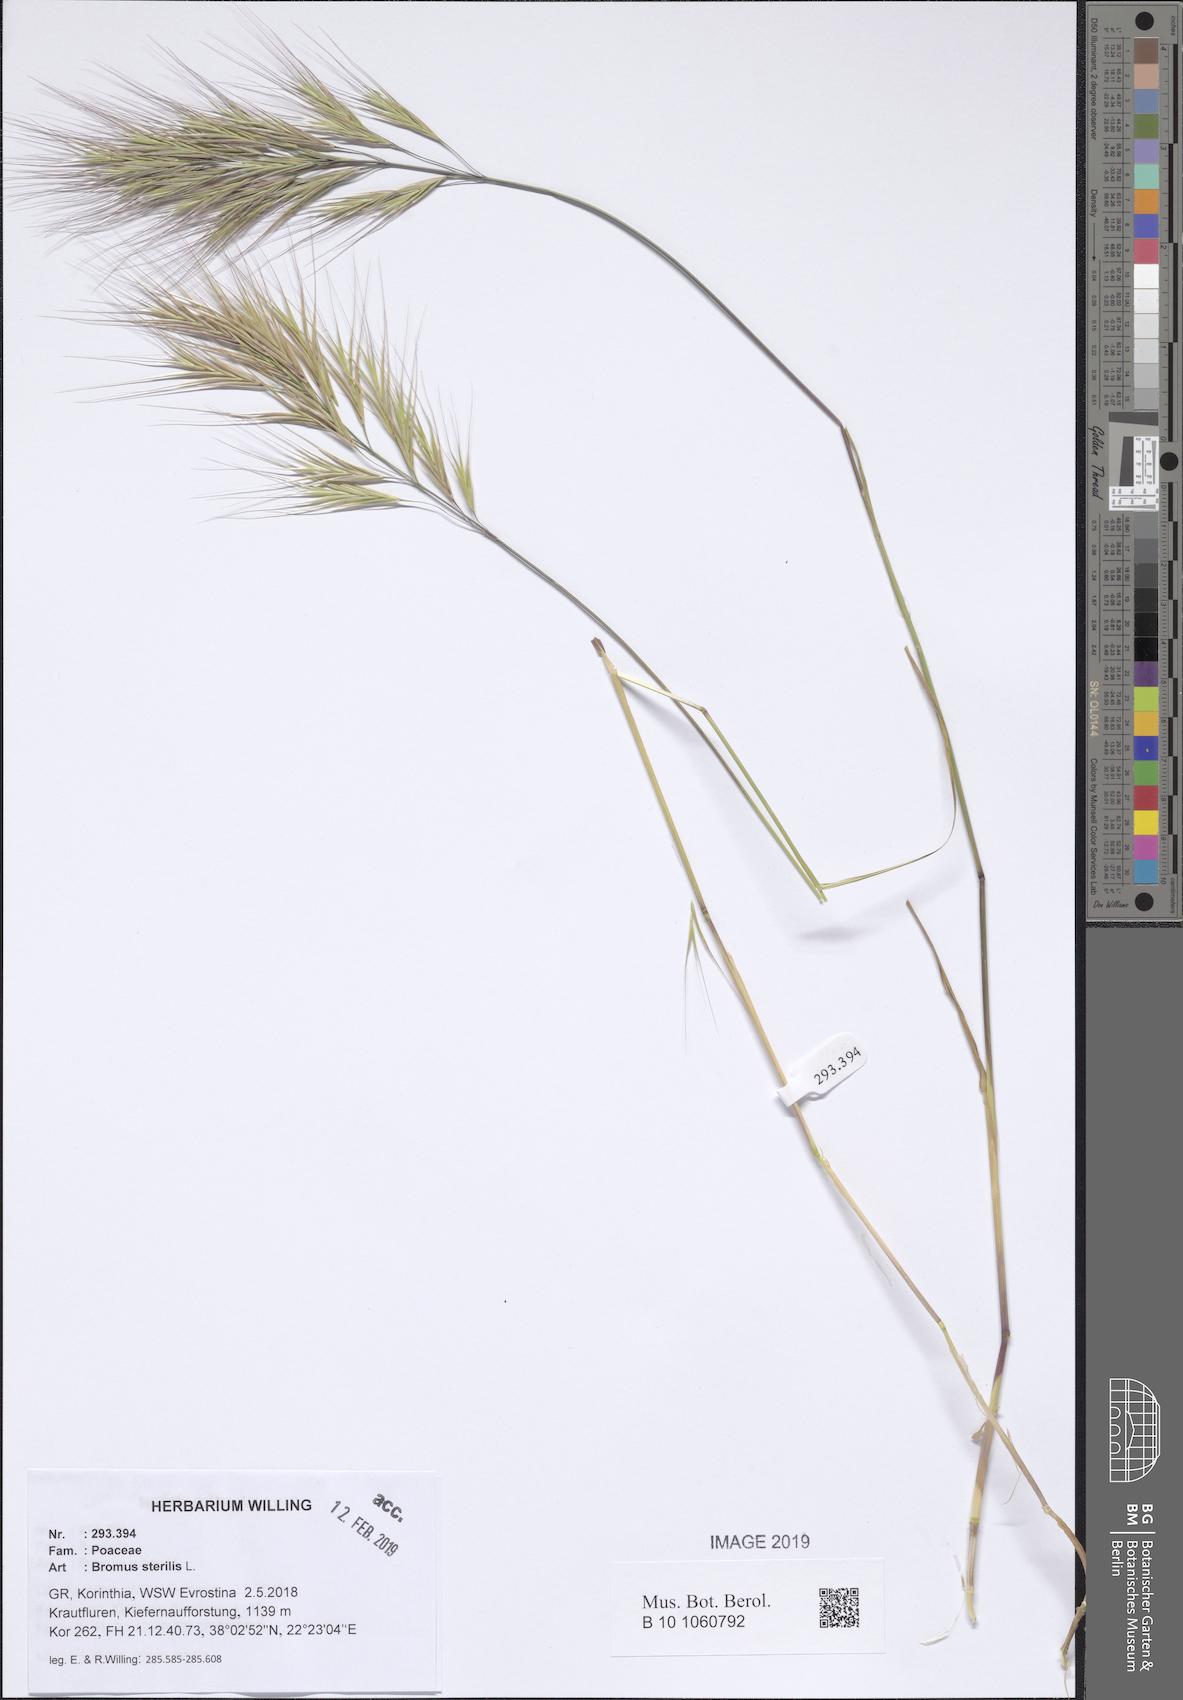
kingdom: Plantae
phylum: Tracheophyta
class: Liliopsida
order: Poales
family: Poaceae
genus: Bromus
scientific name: Bromus sterilis
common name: Poverty brome
